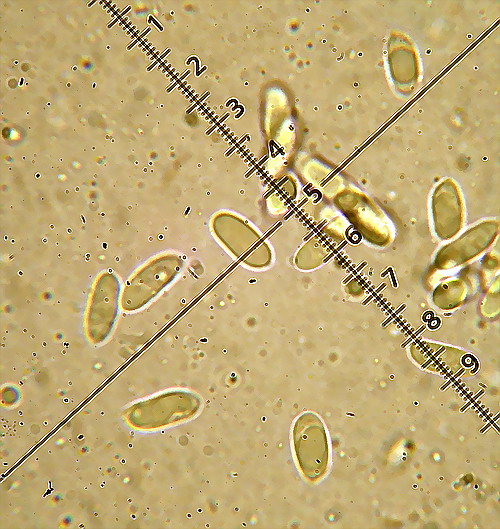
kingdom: Fungi
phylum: Basidiomycota
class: Agaricomycetes
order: Polyporales
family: Hyphodermataceae
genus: Hyphoderma
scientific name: Hyphoderma medioburiense
